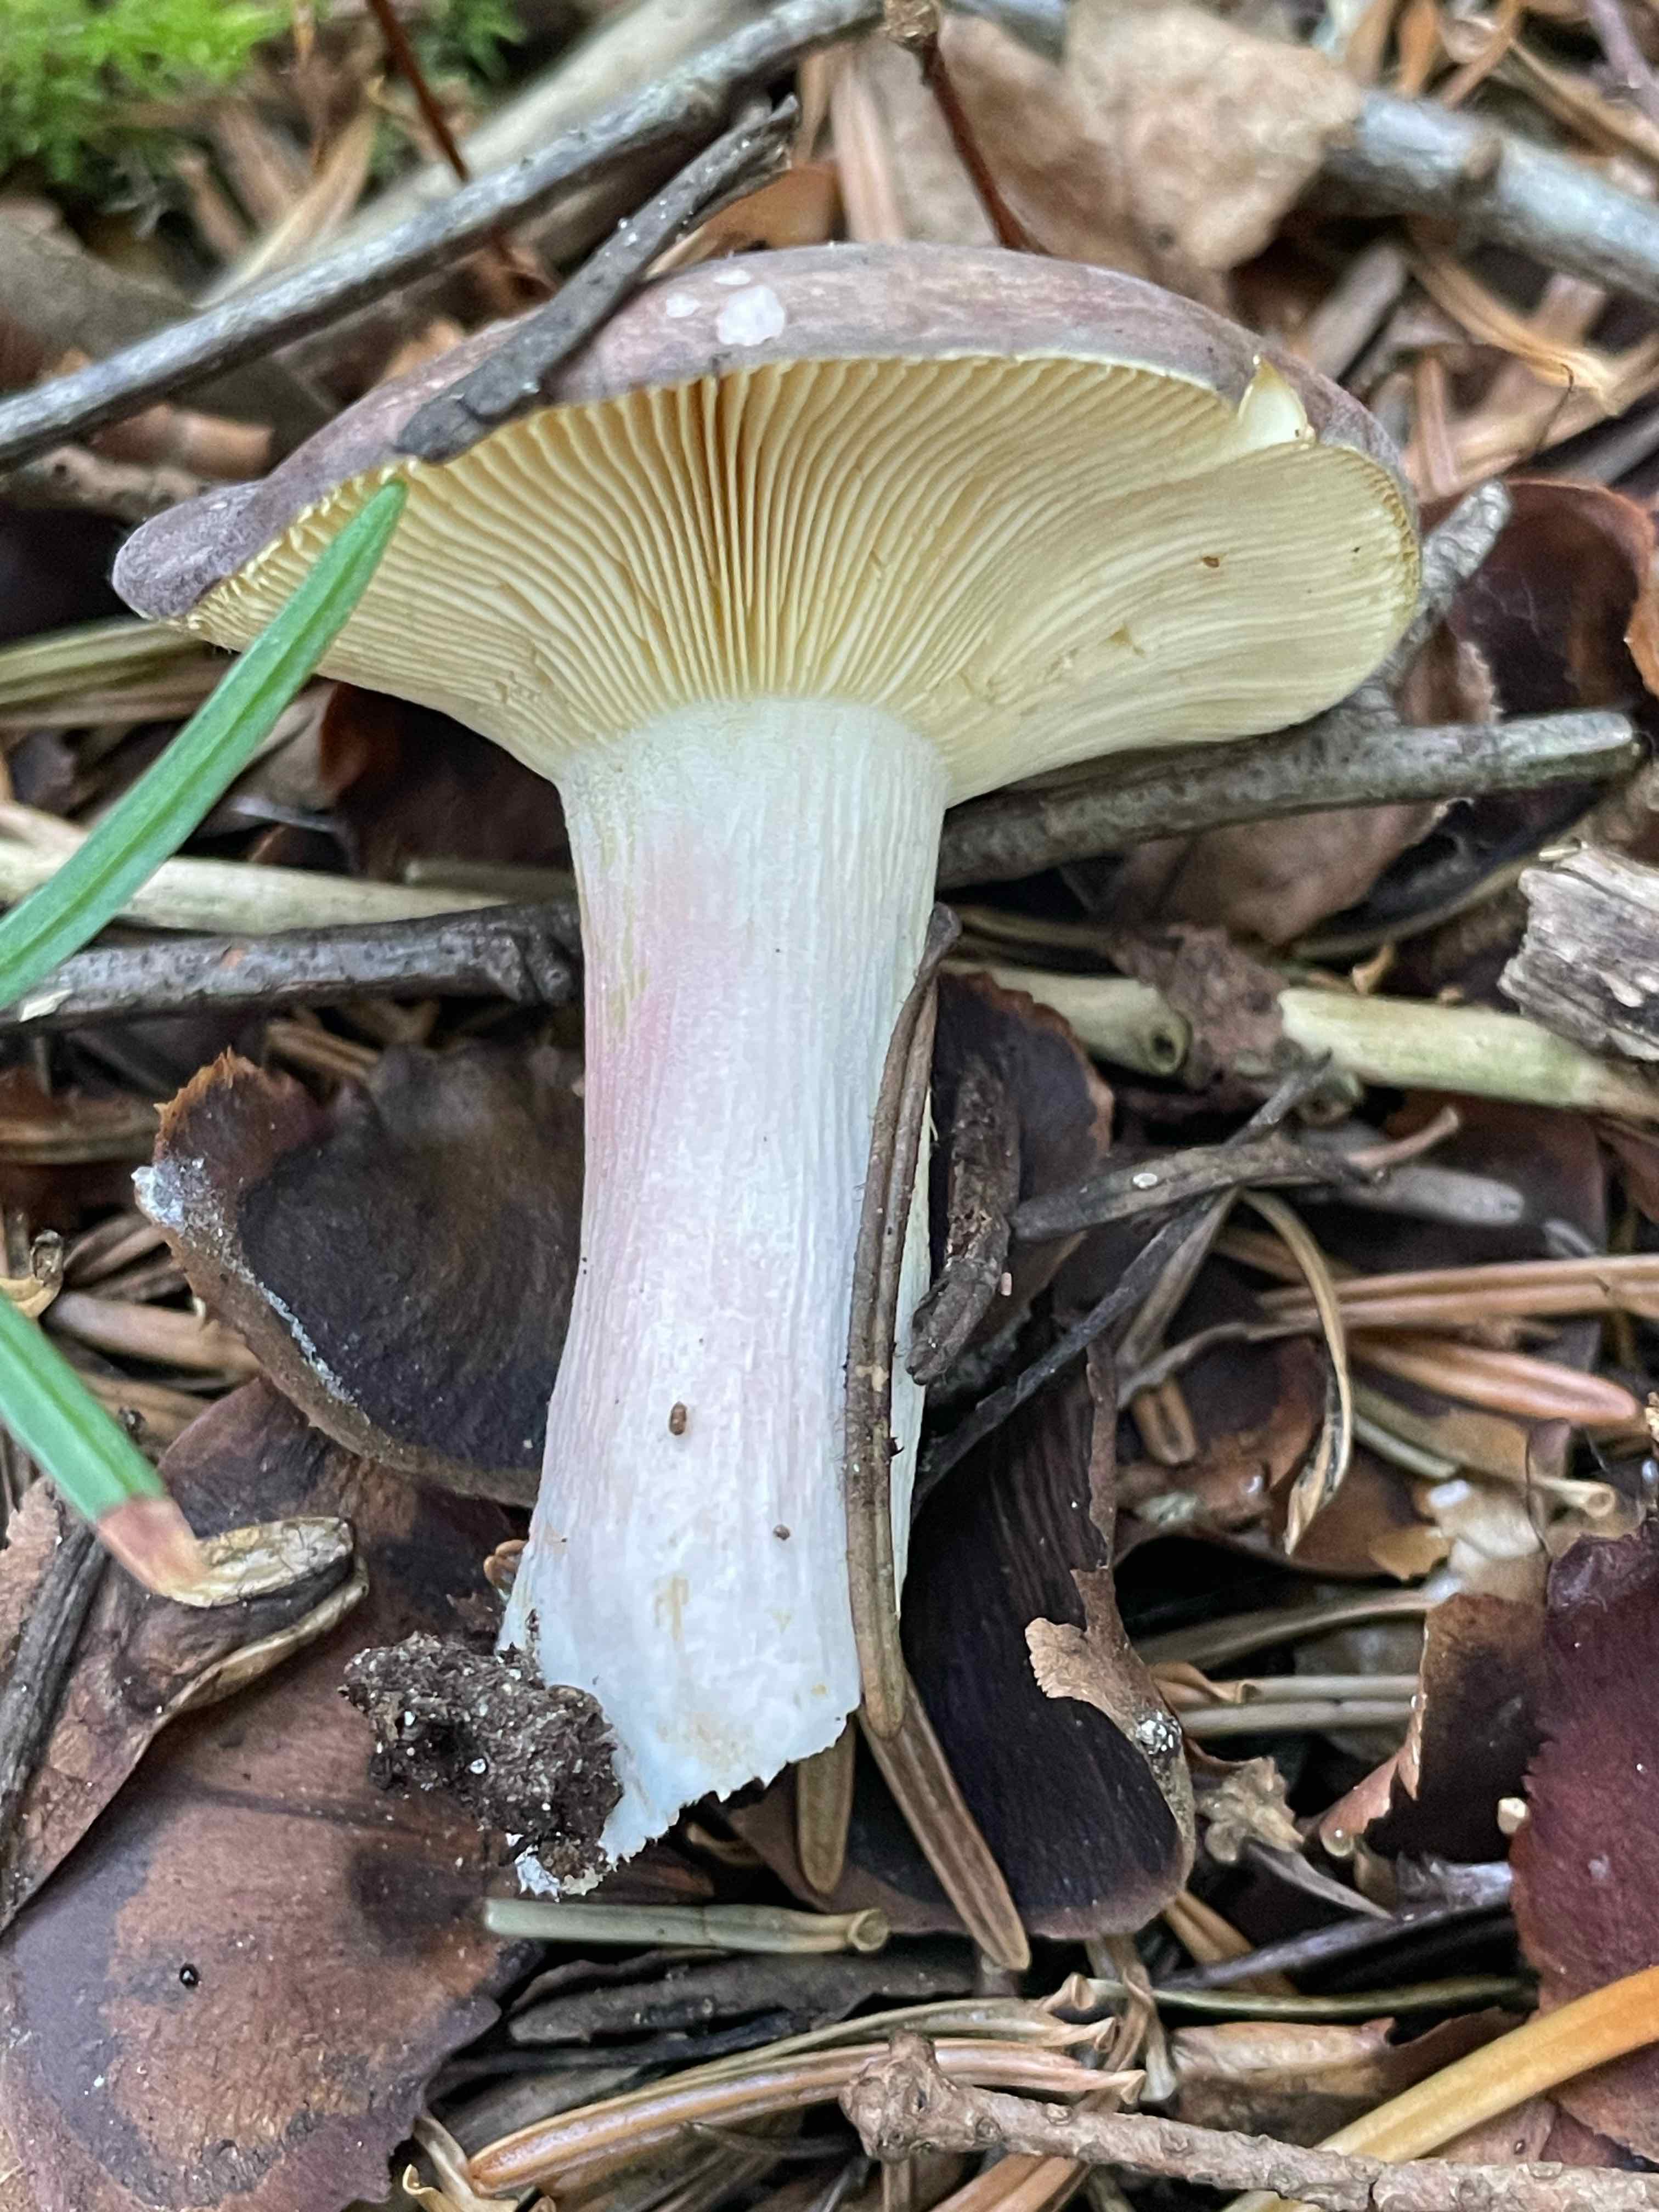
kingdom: Fungi
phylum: Basidiomycota
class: Agaricomycetes
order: Russulales
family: Russulaceae
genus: Russula
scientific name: Russula
